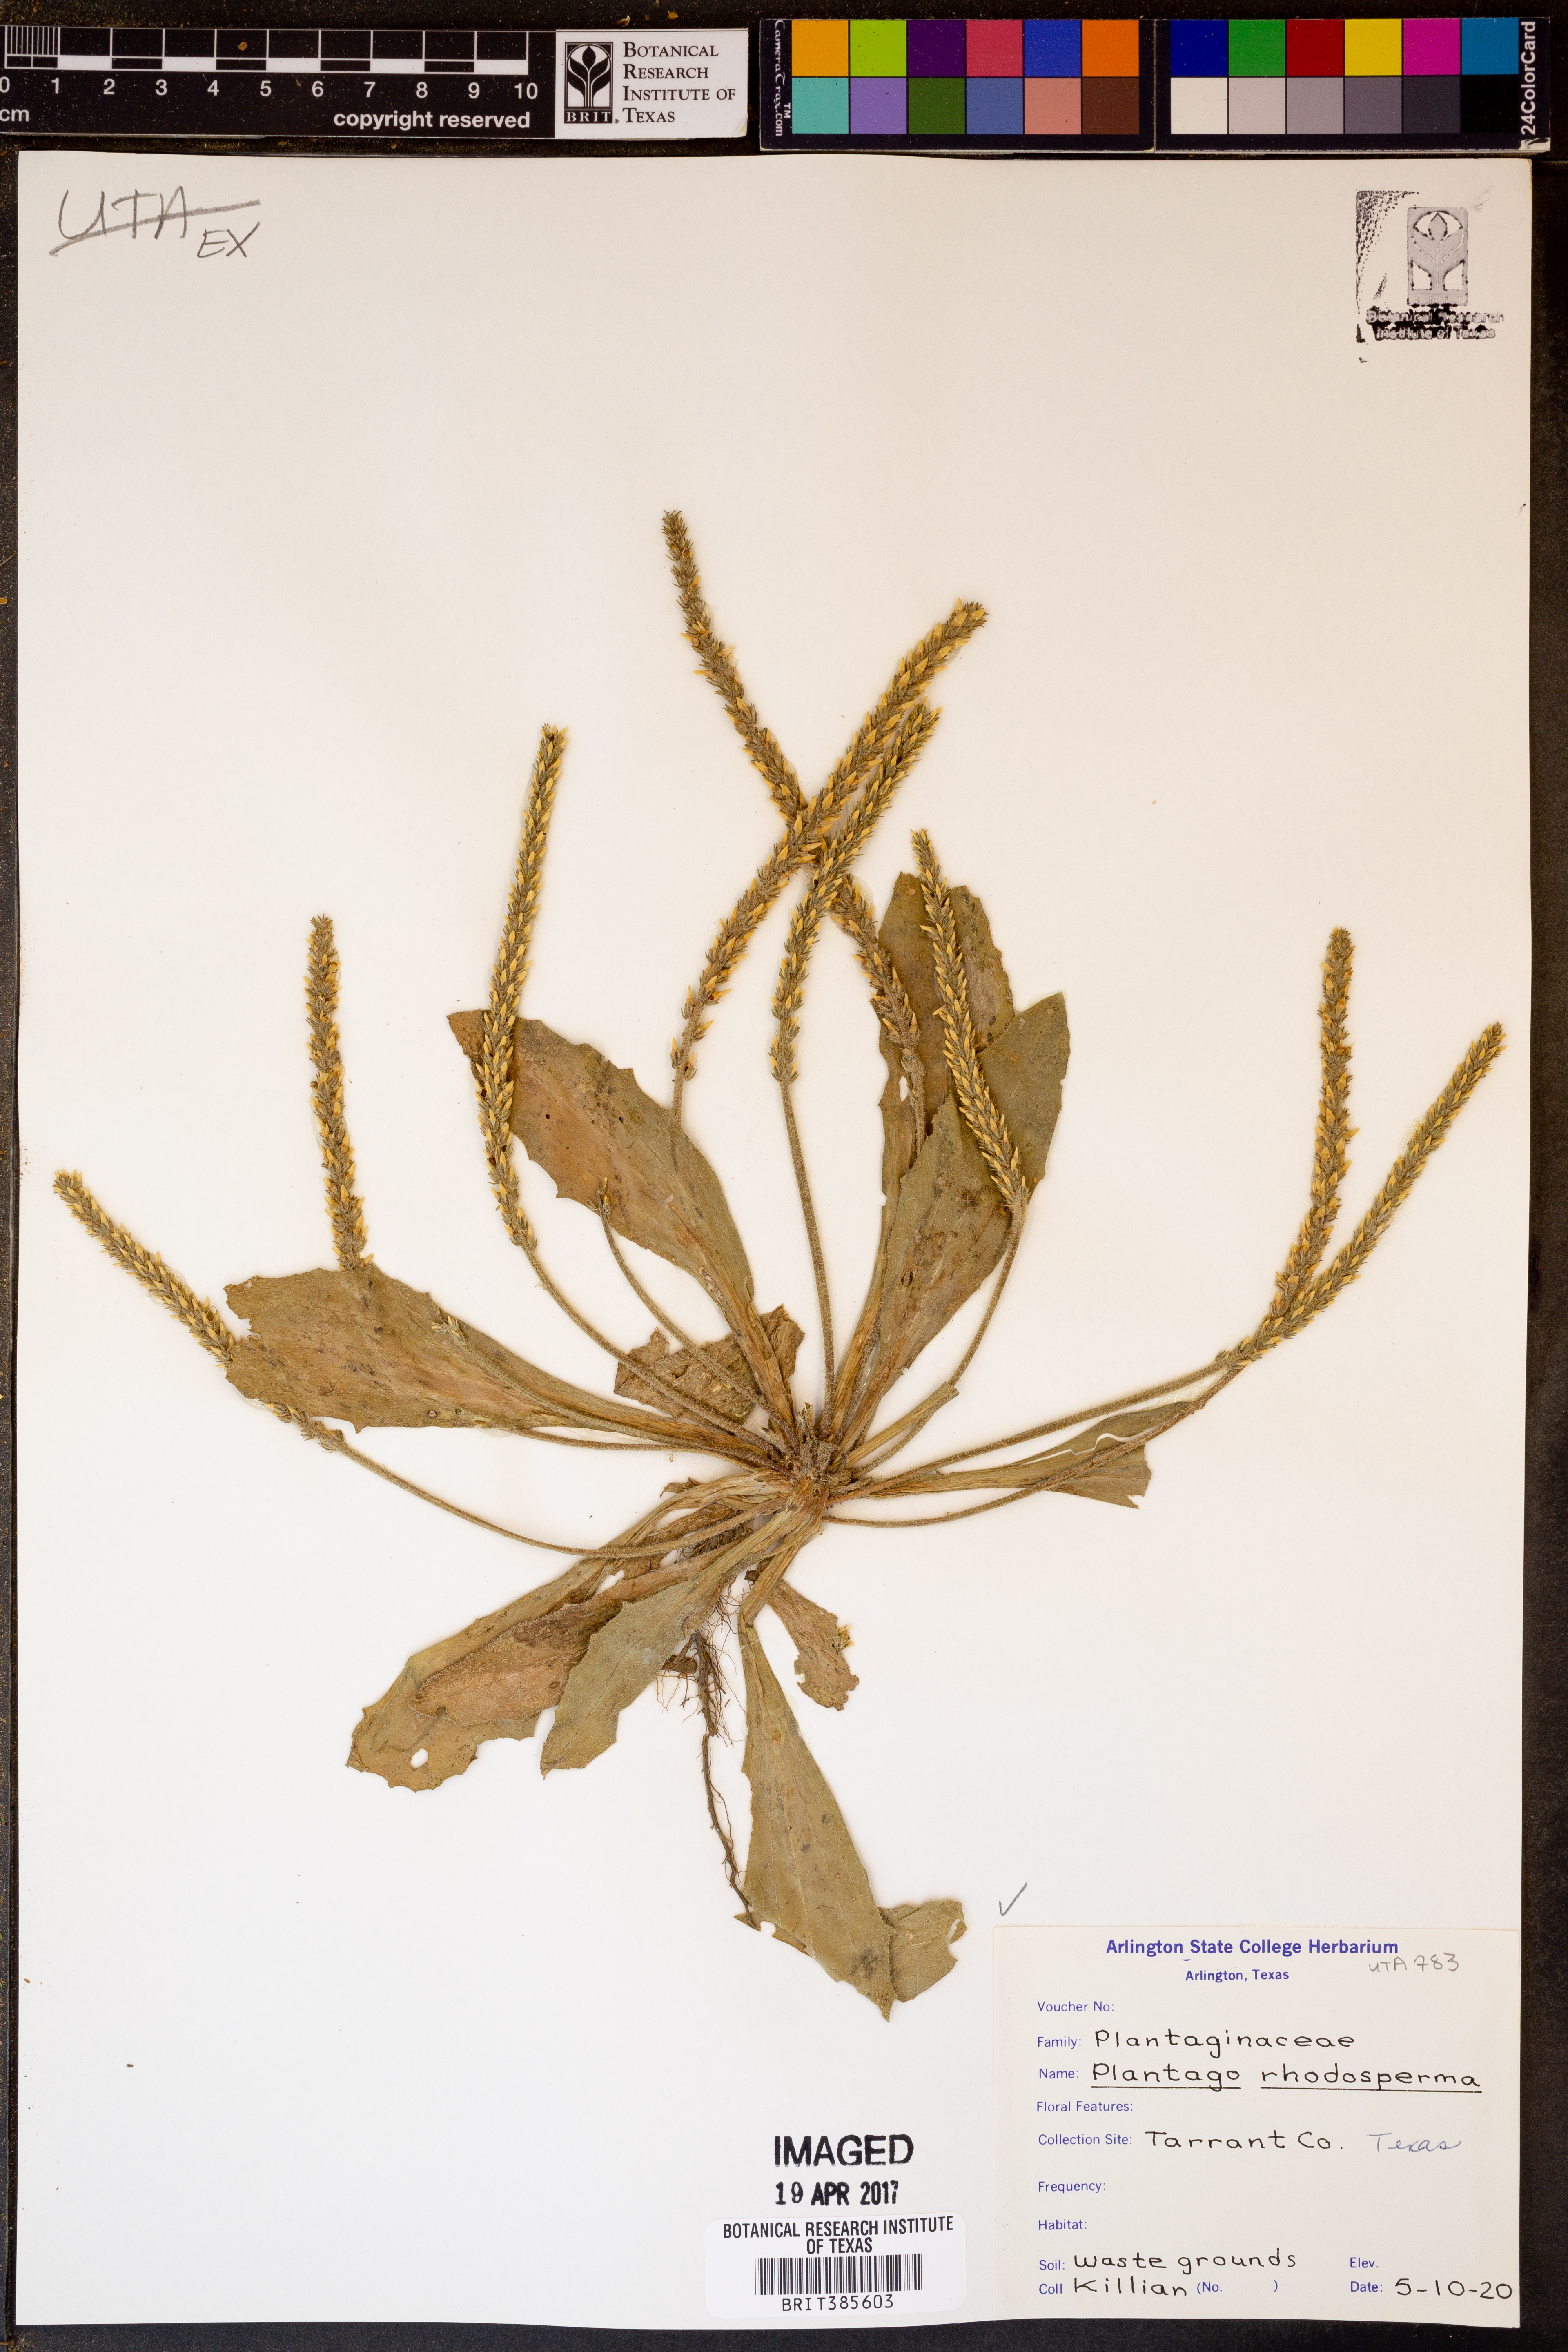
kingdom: Plantae
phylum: Tracheophyta
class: Magnoliopsida
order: Lamiales
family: Plantaginaceae
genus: Plantago
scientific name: Plantago rhodosperma
